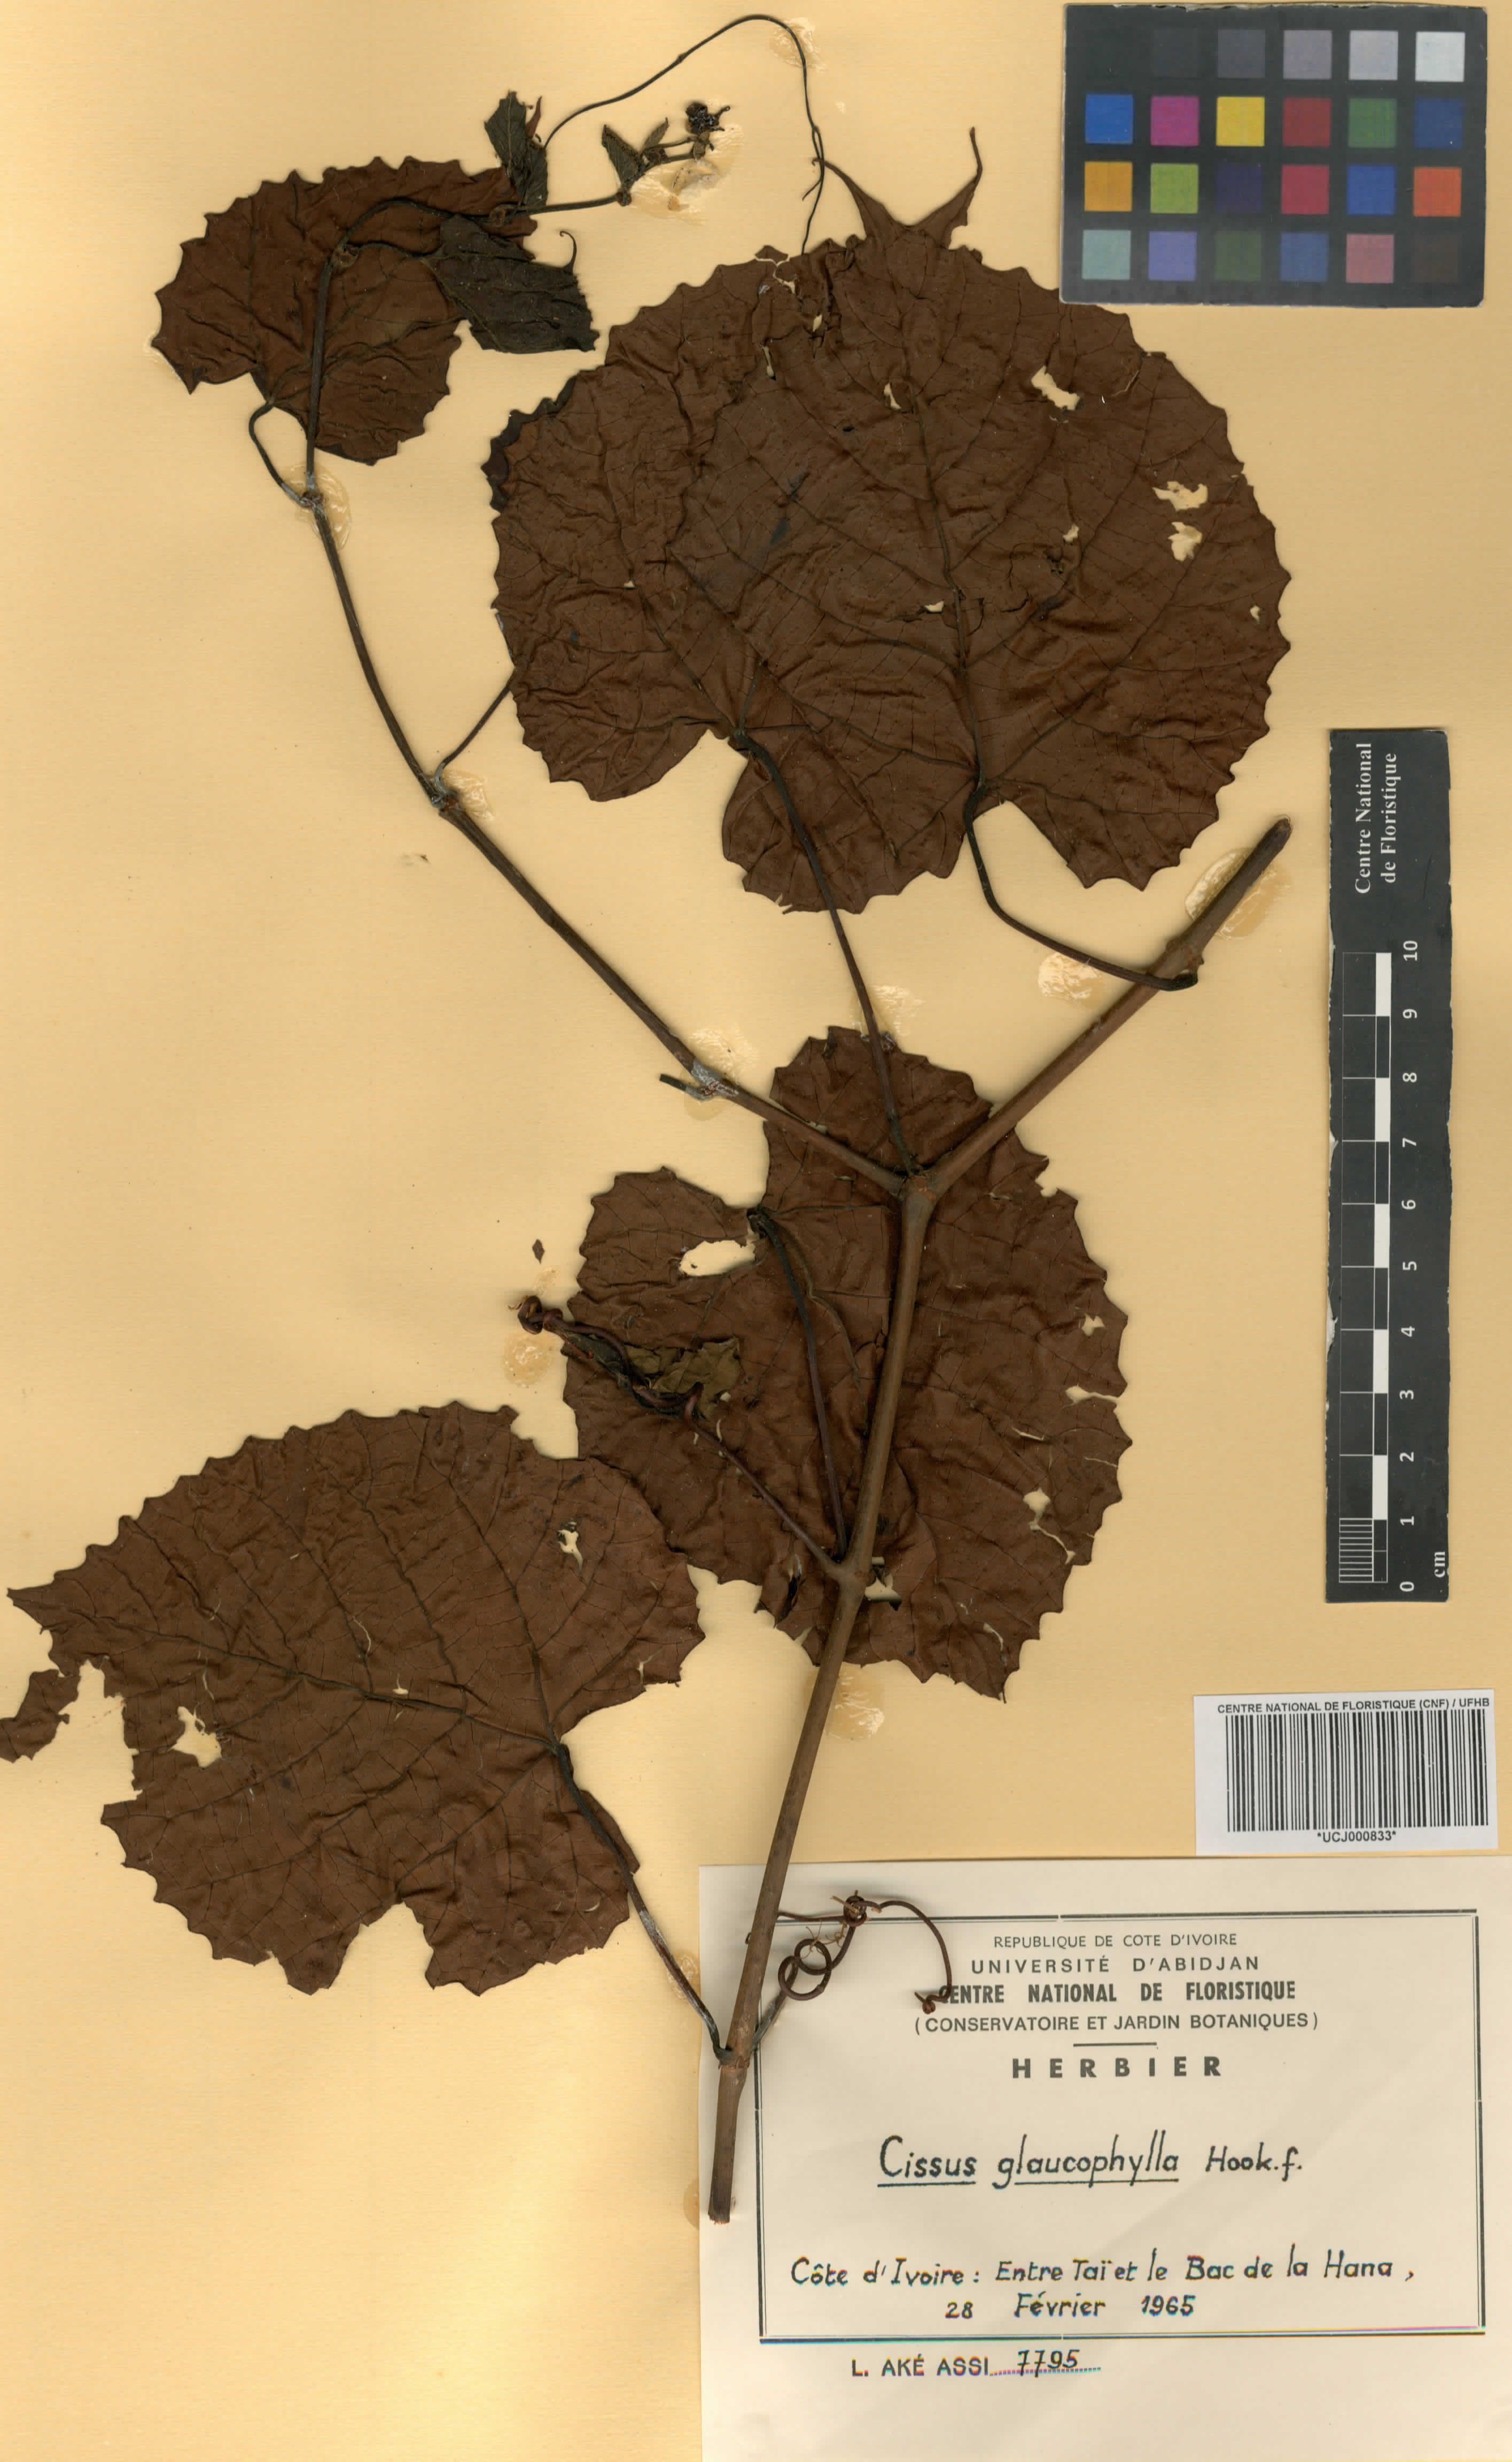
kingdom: Plantae
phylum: Tracheophyta
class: Magnoliopsida
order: Vitales
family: Vitaceae
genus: Cissus
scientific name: Cissus glaucophylla
